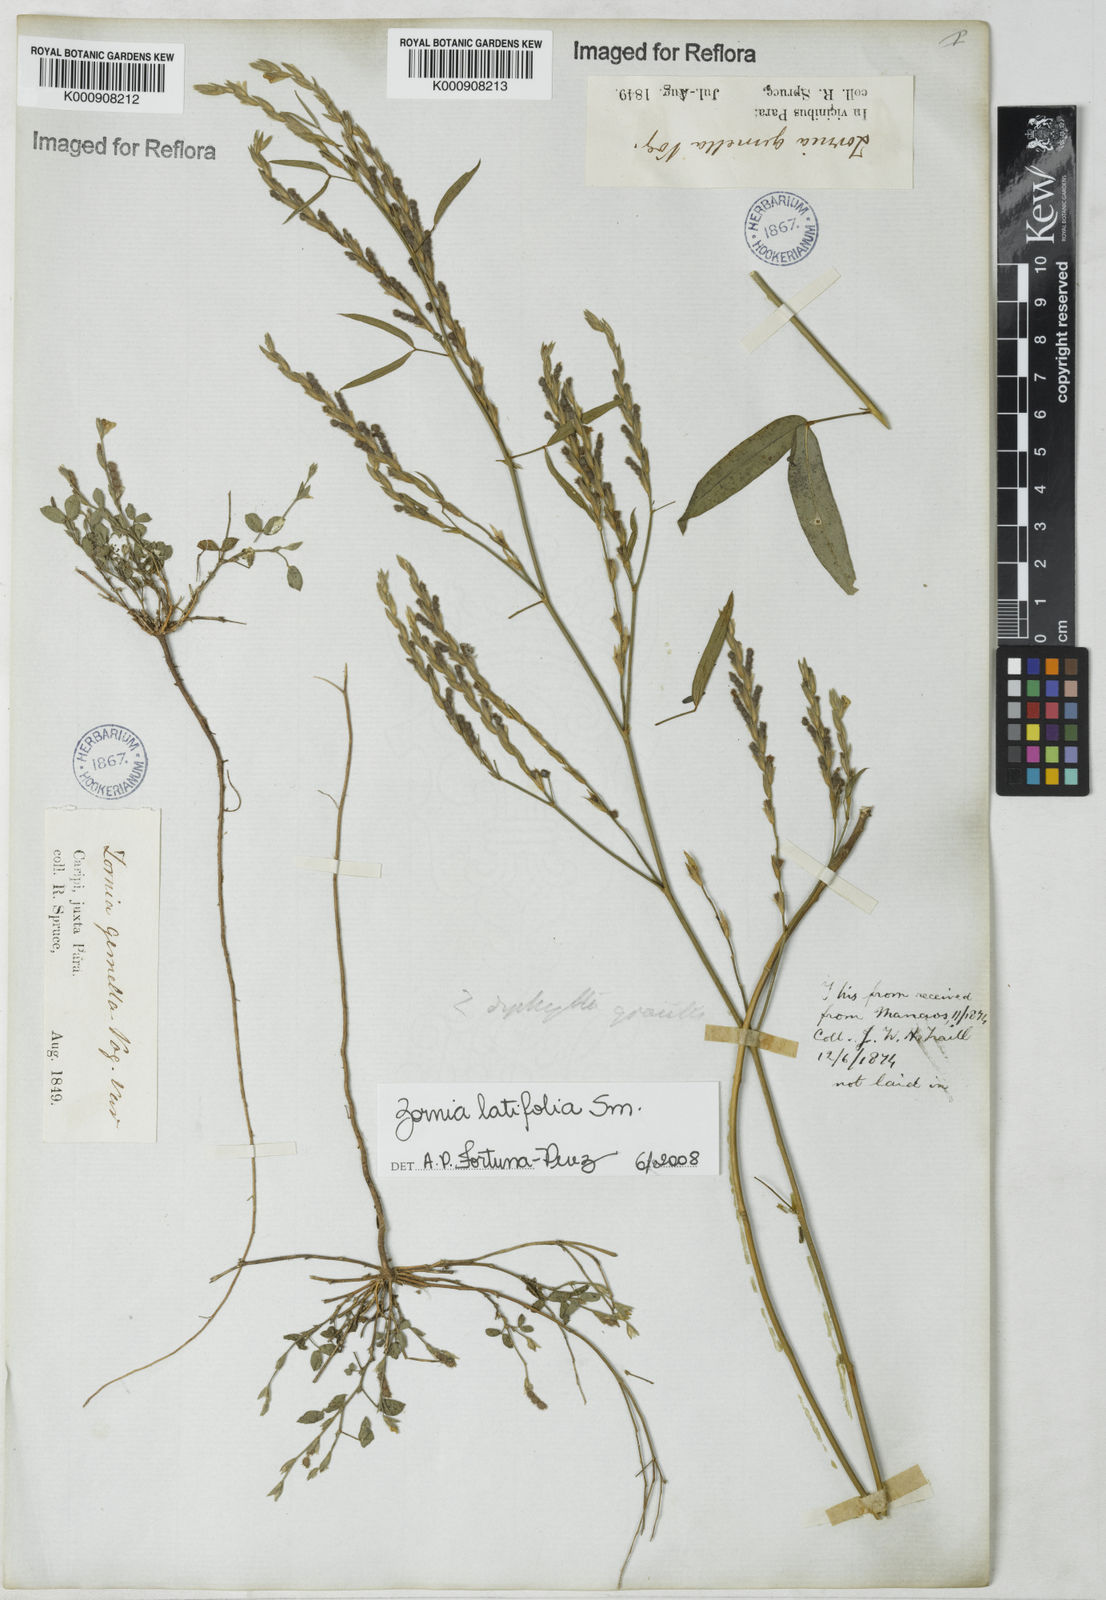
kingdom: Plantae
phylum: Tracheophyta
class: Magnoliopsida
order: Fabales
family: Fabaceae
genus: Zornia
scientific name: Zornia latifolia
